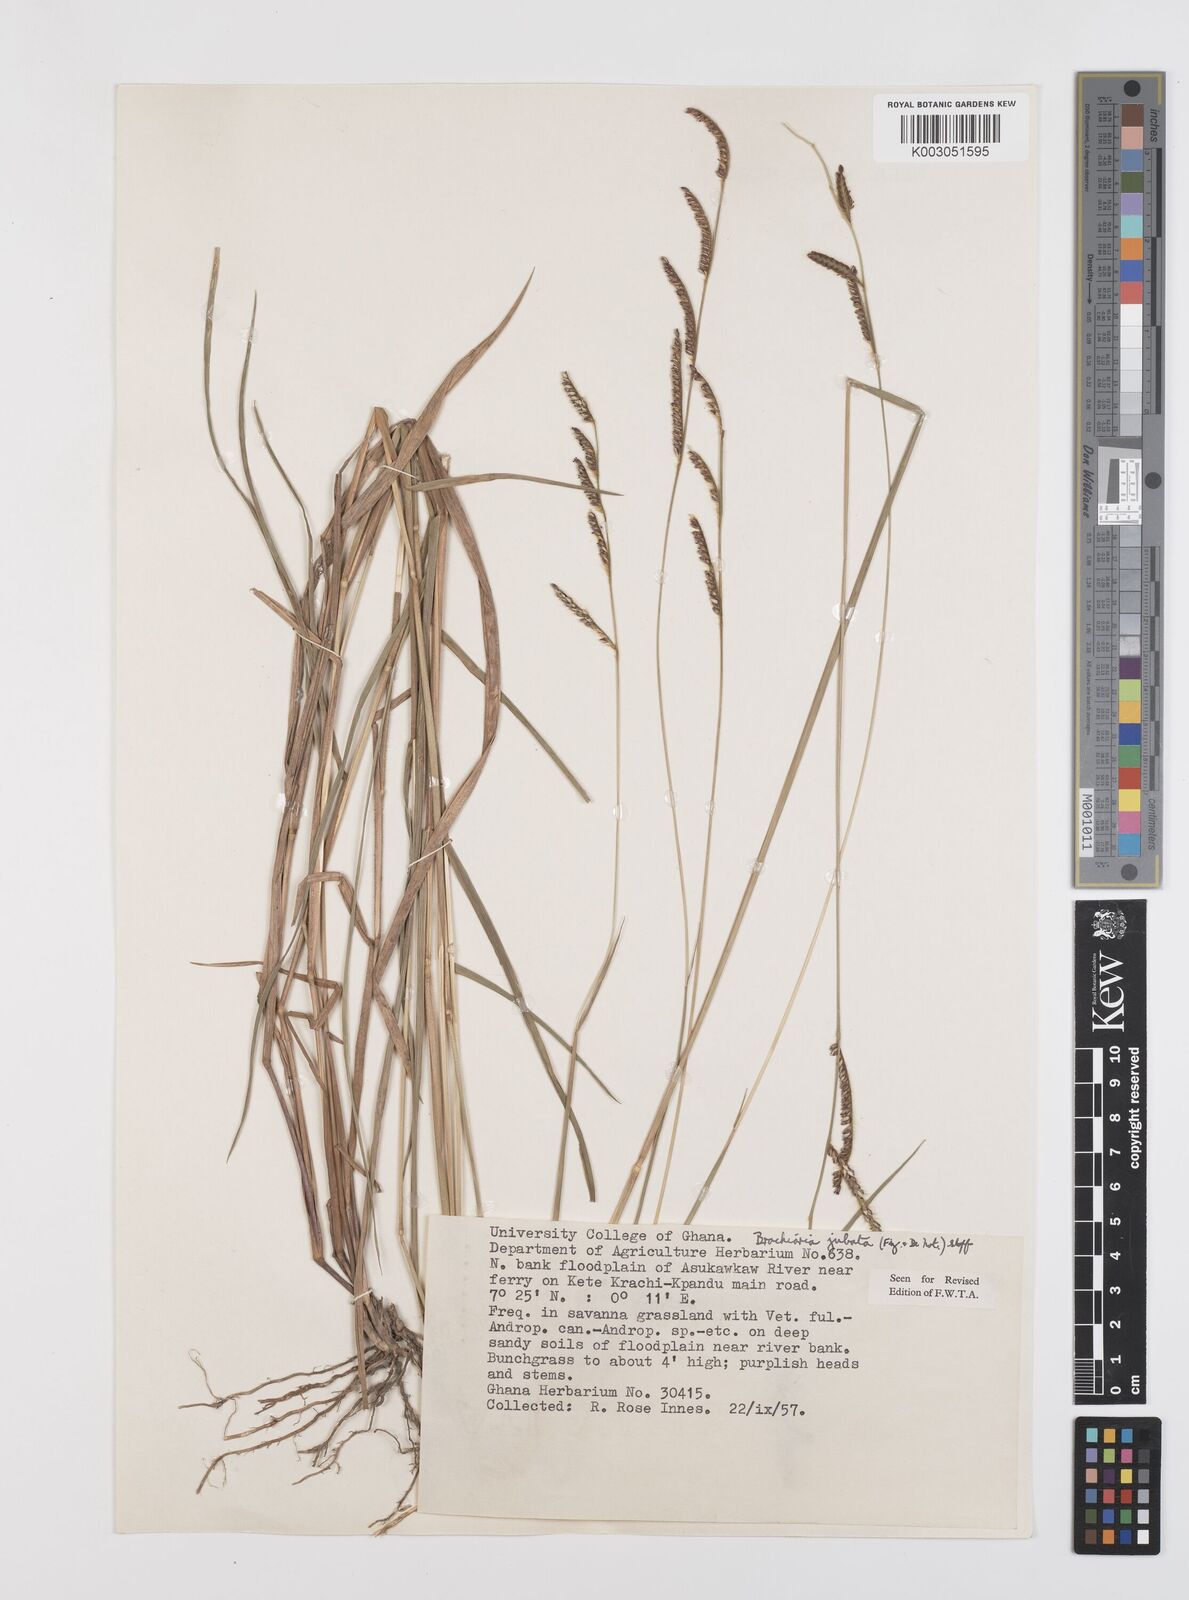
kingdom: Plantae
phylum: Tracheophyta
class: Liliopsida
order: Poales
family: Poaceae
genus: Urochloa
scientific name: Urochloa jubata
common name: Buffalograss
